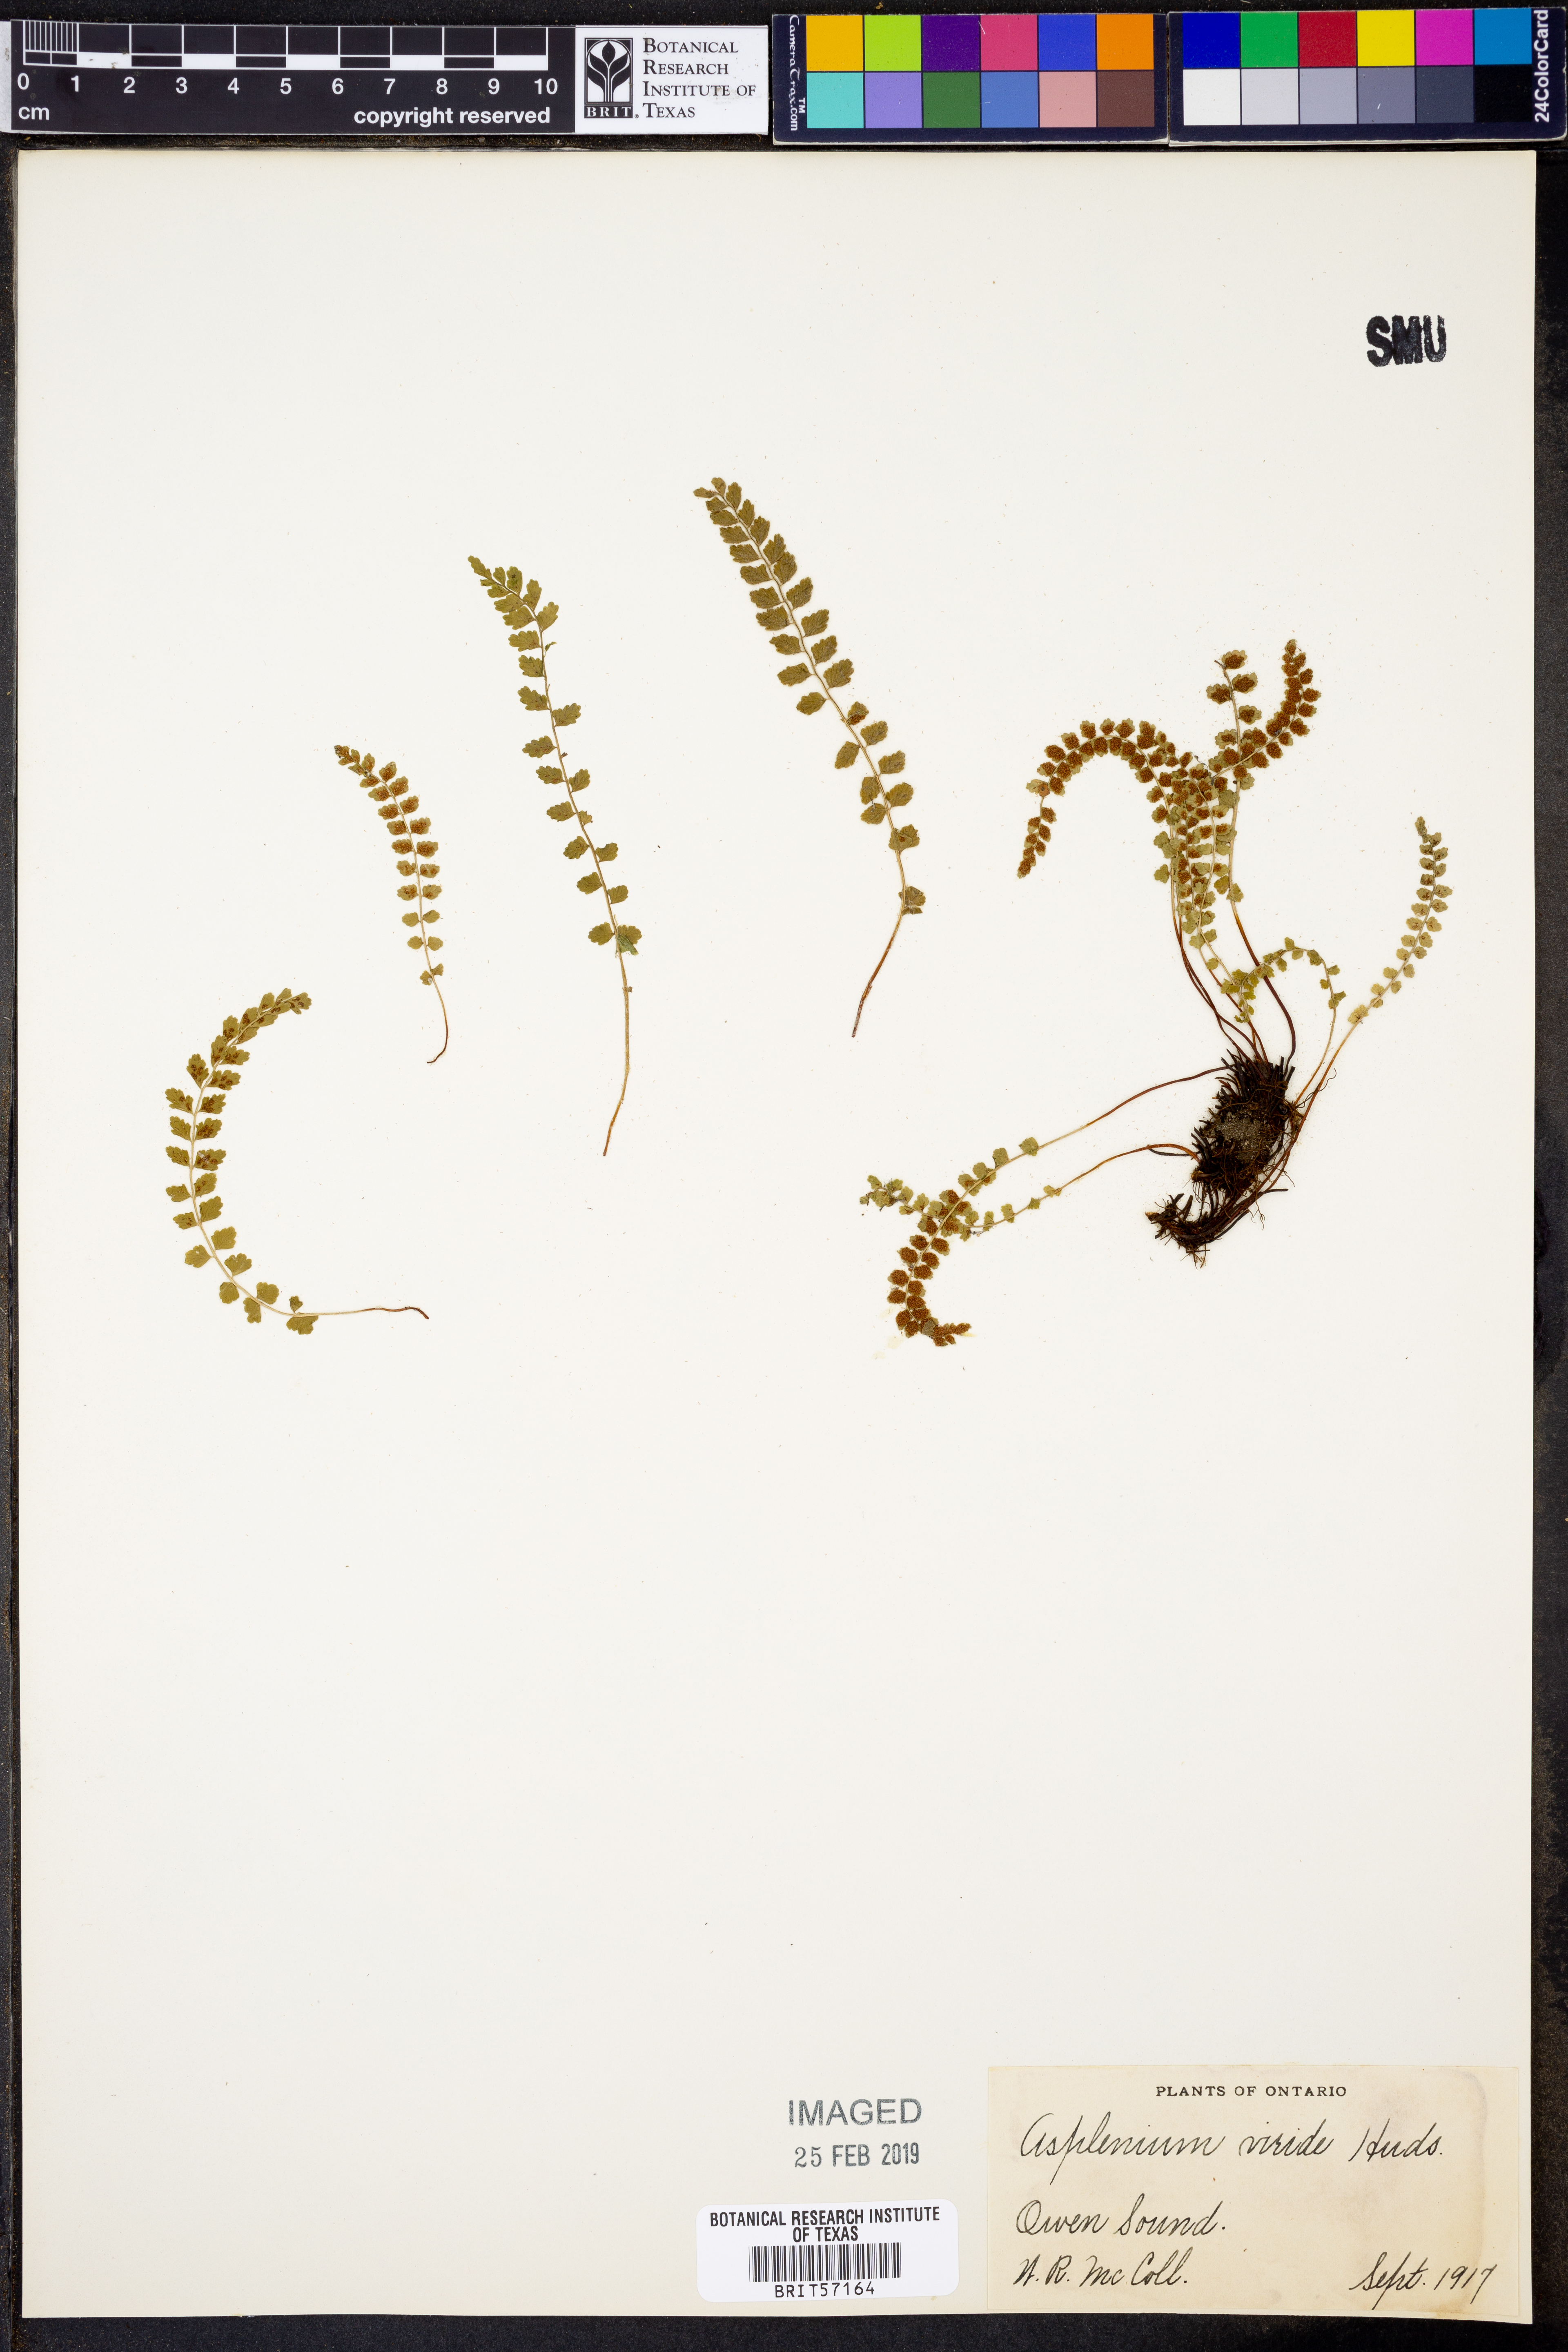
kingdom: Plantae
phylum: Tracheophyta
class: Polypodiopsida
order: Polypodiales
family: Aspleniaceae
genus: Asplenium
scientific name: Asplenium viride
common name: Green spleenwort
